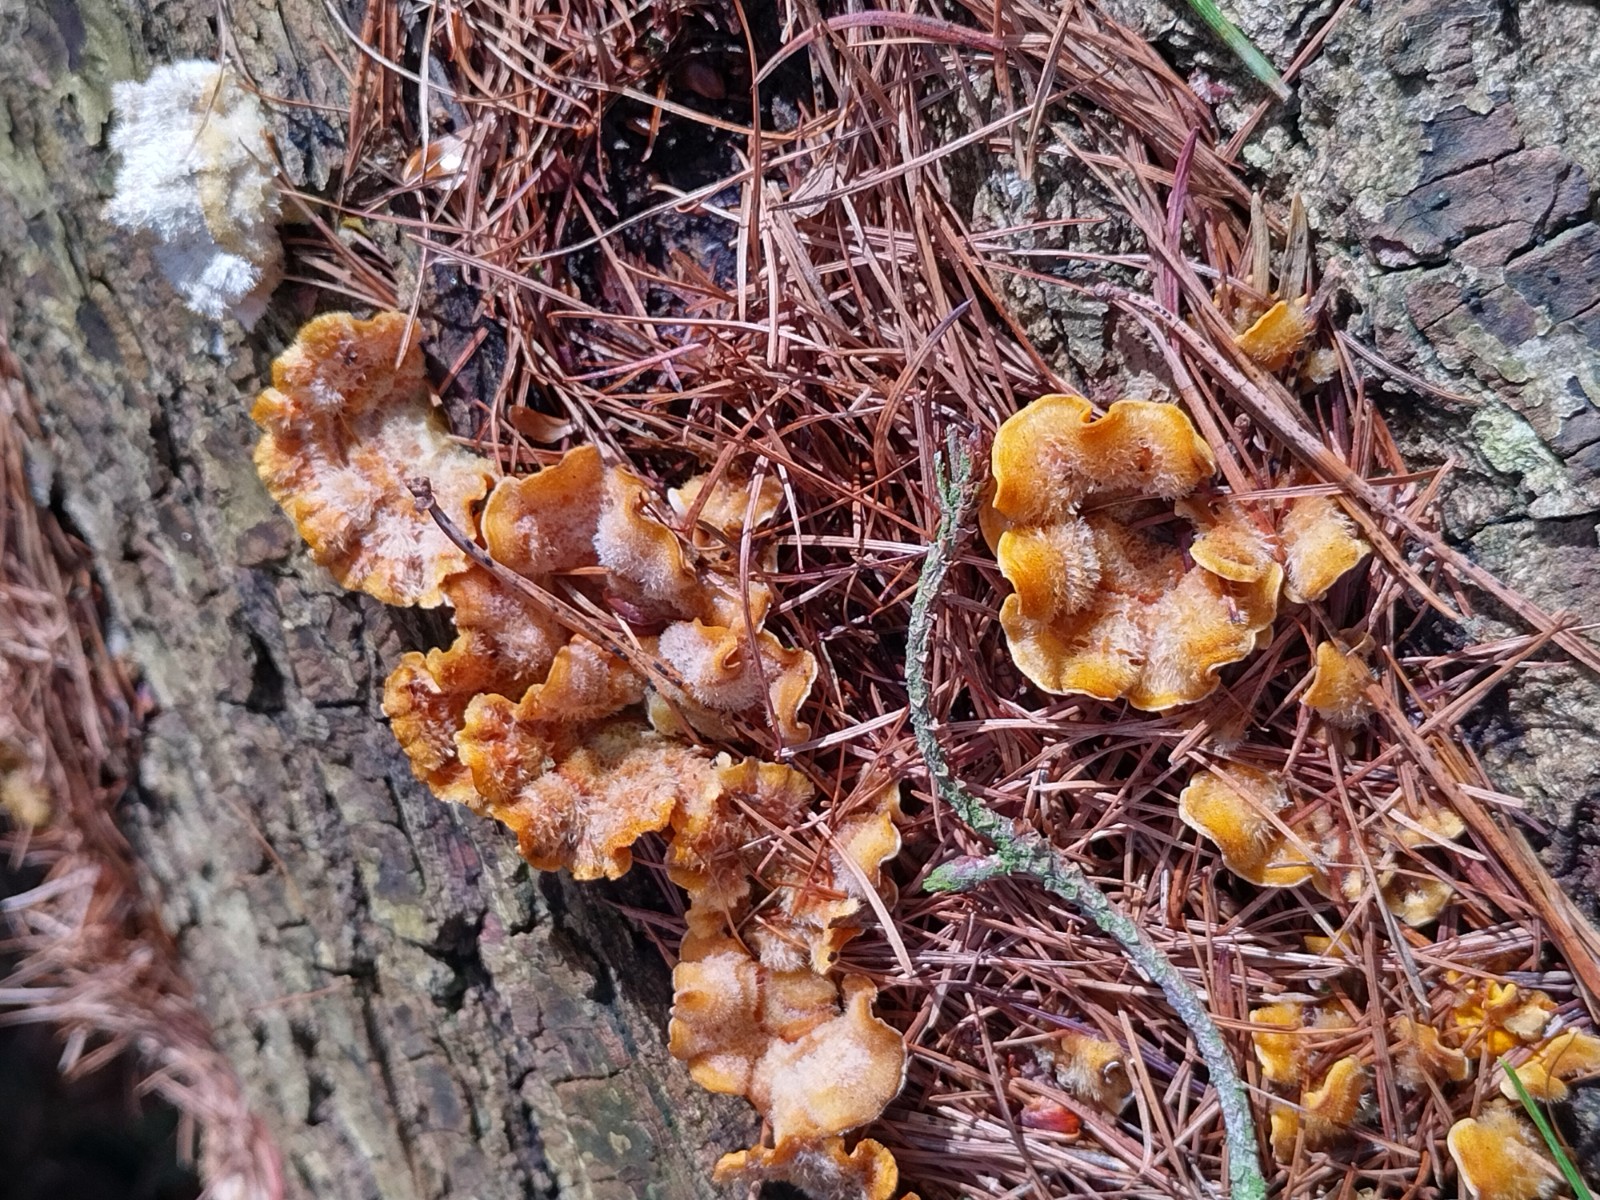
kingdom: Fungi
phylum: Basidiomycota
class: Agaricomycetes
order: Russulales
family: Stereaceae
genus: Stereum
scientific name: Stereum subtomentosum
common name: smuk lædersvamp
